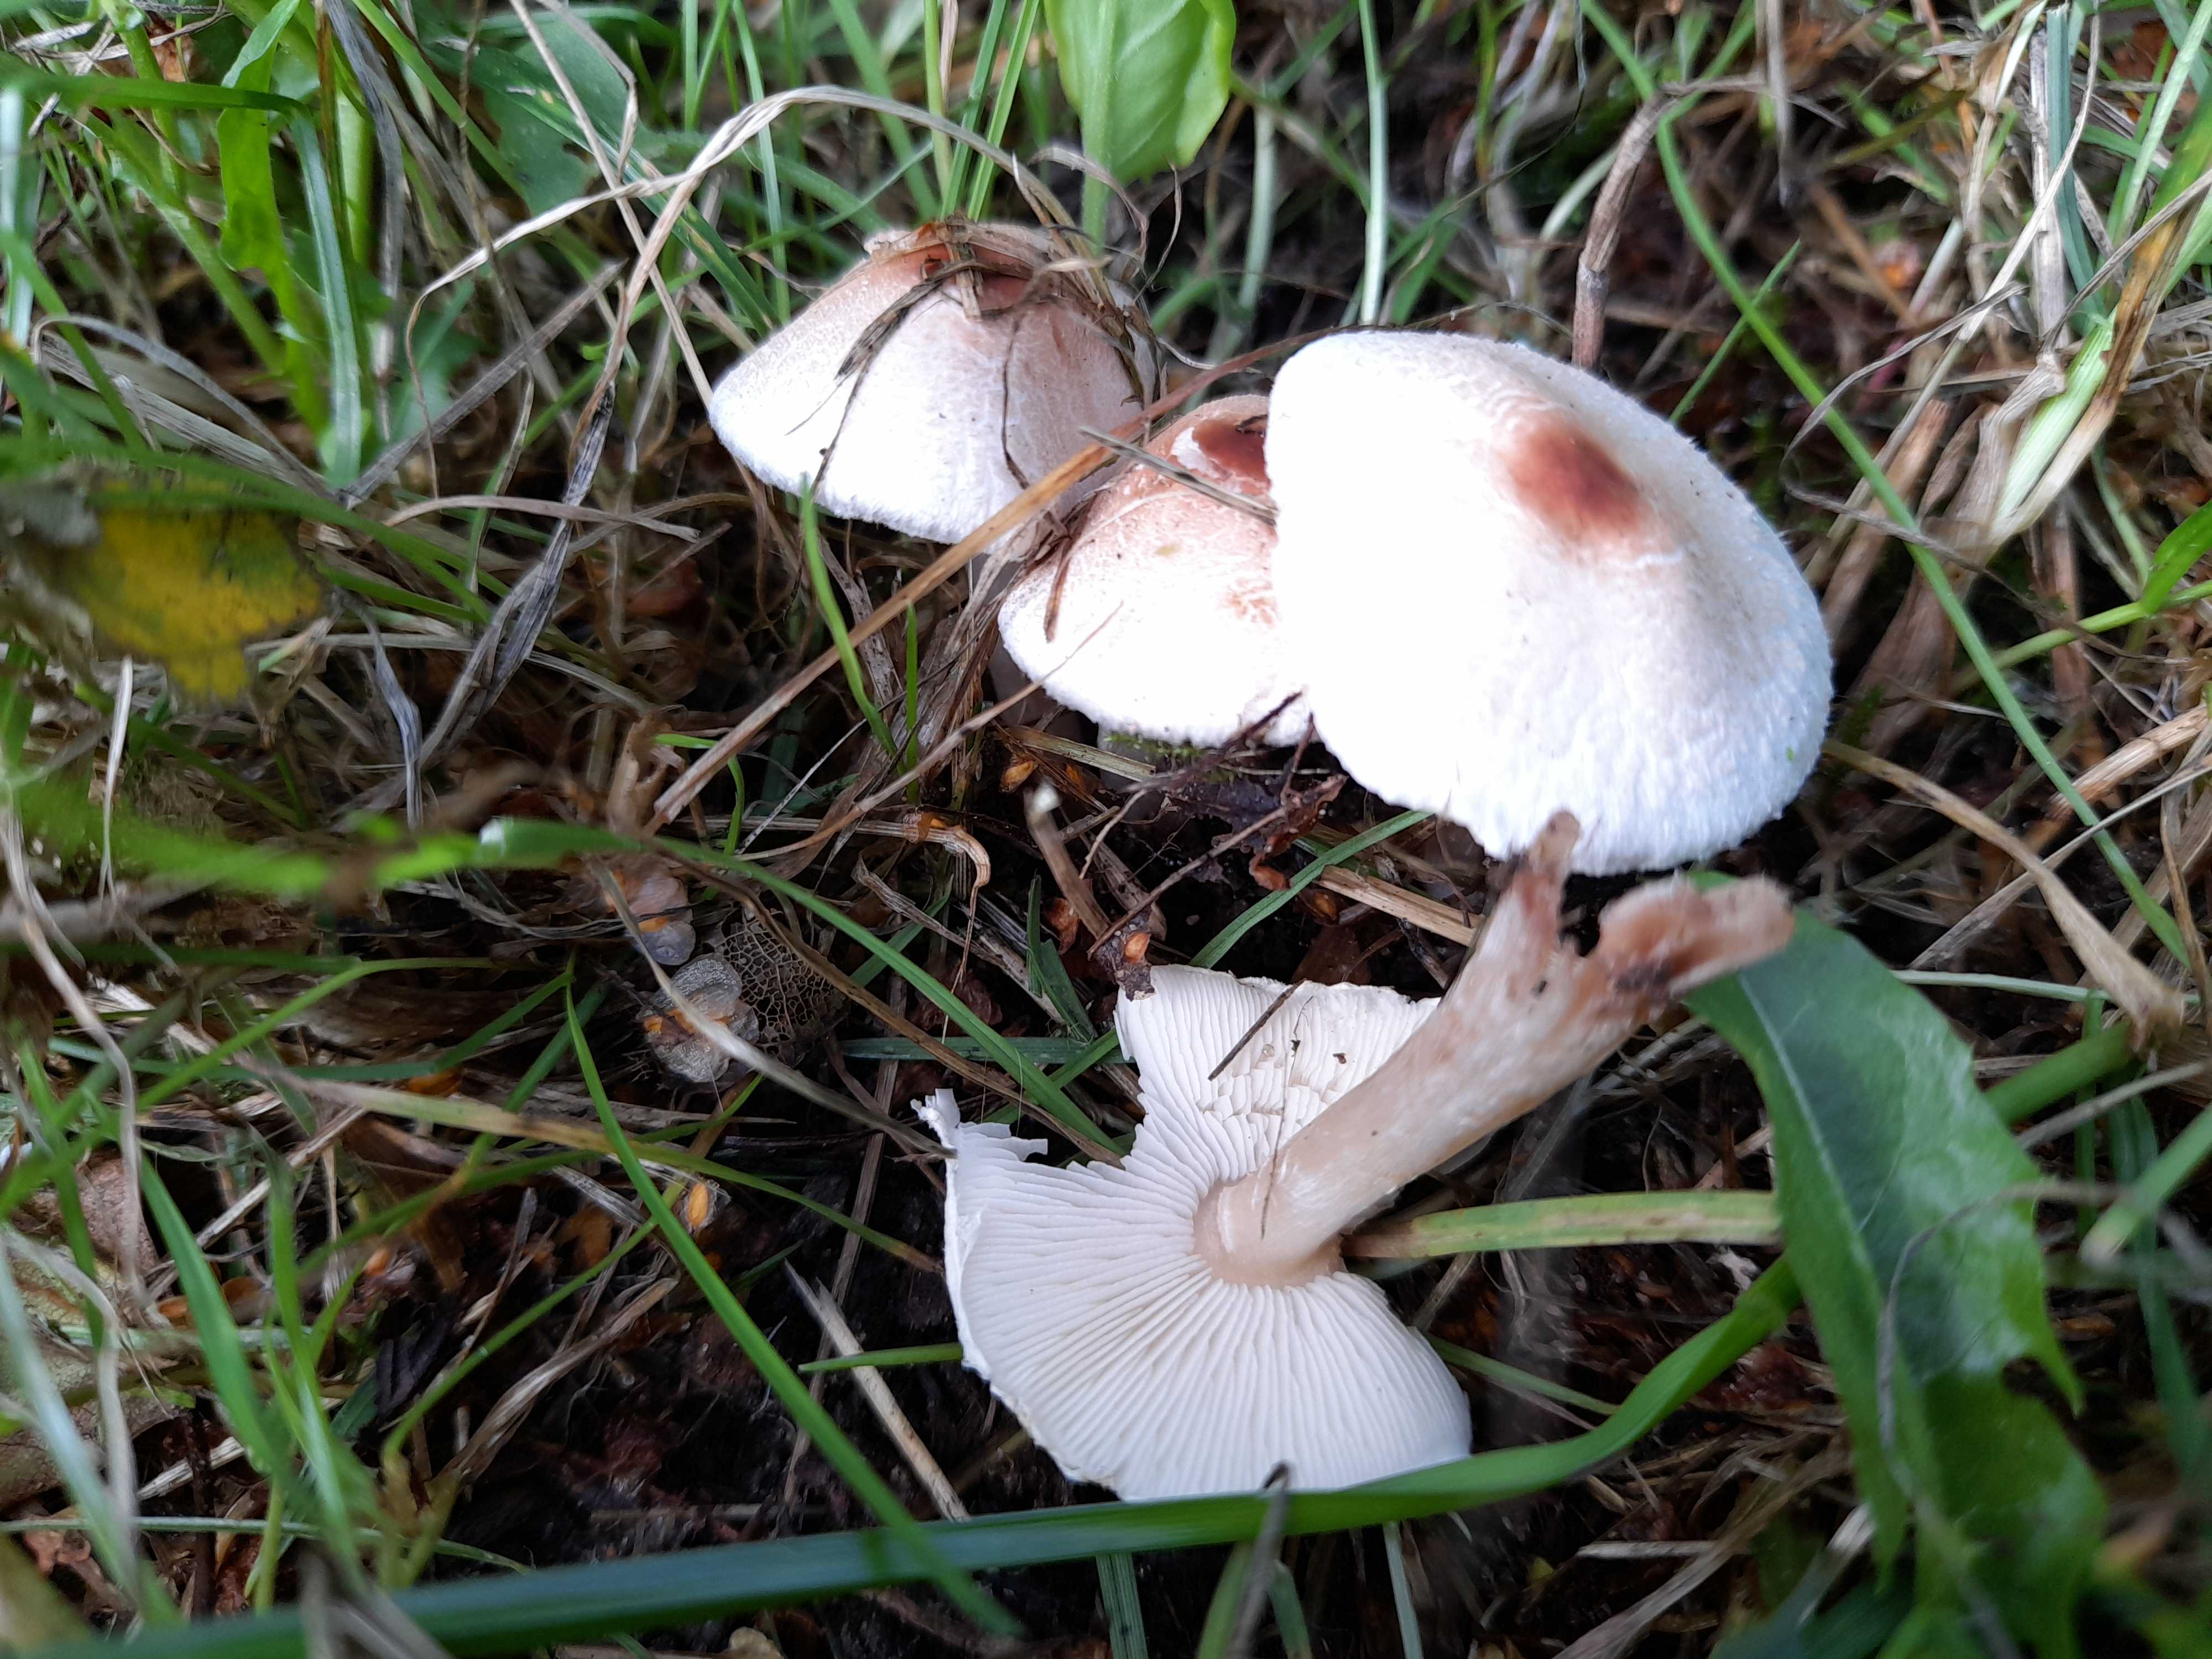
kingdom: Fungi
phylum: Basidiomycota
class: Agaricomycetes
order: Agaricales
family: Agaricaceae
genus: Lepiota
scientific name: Lepiota cristata
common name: stinkende parasolhat
